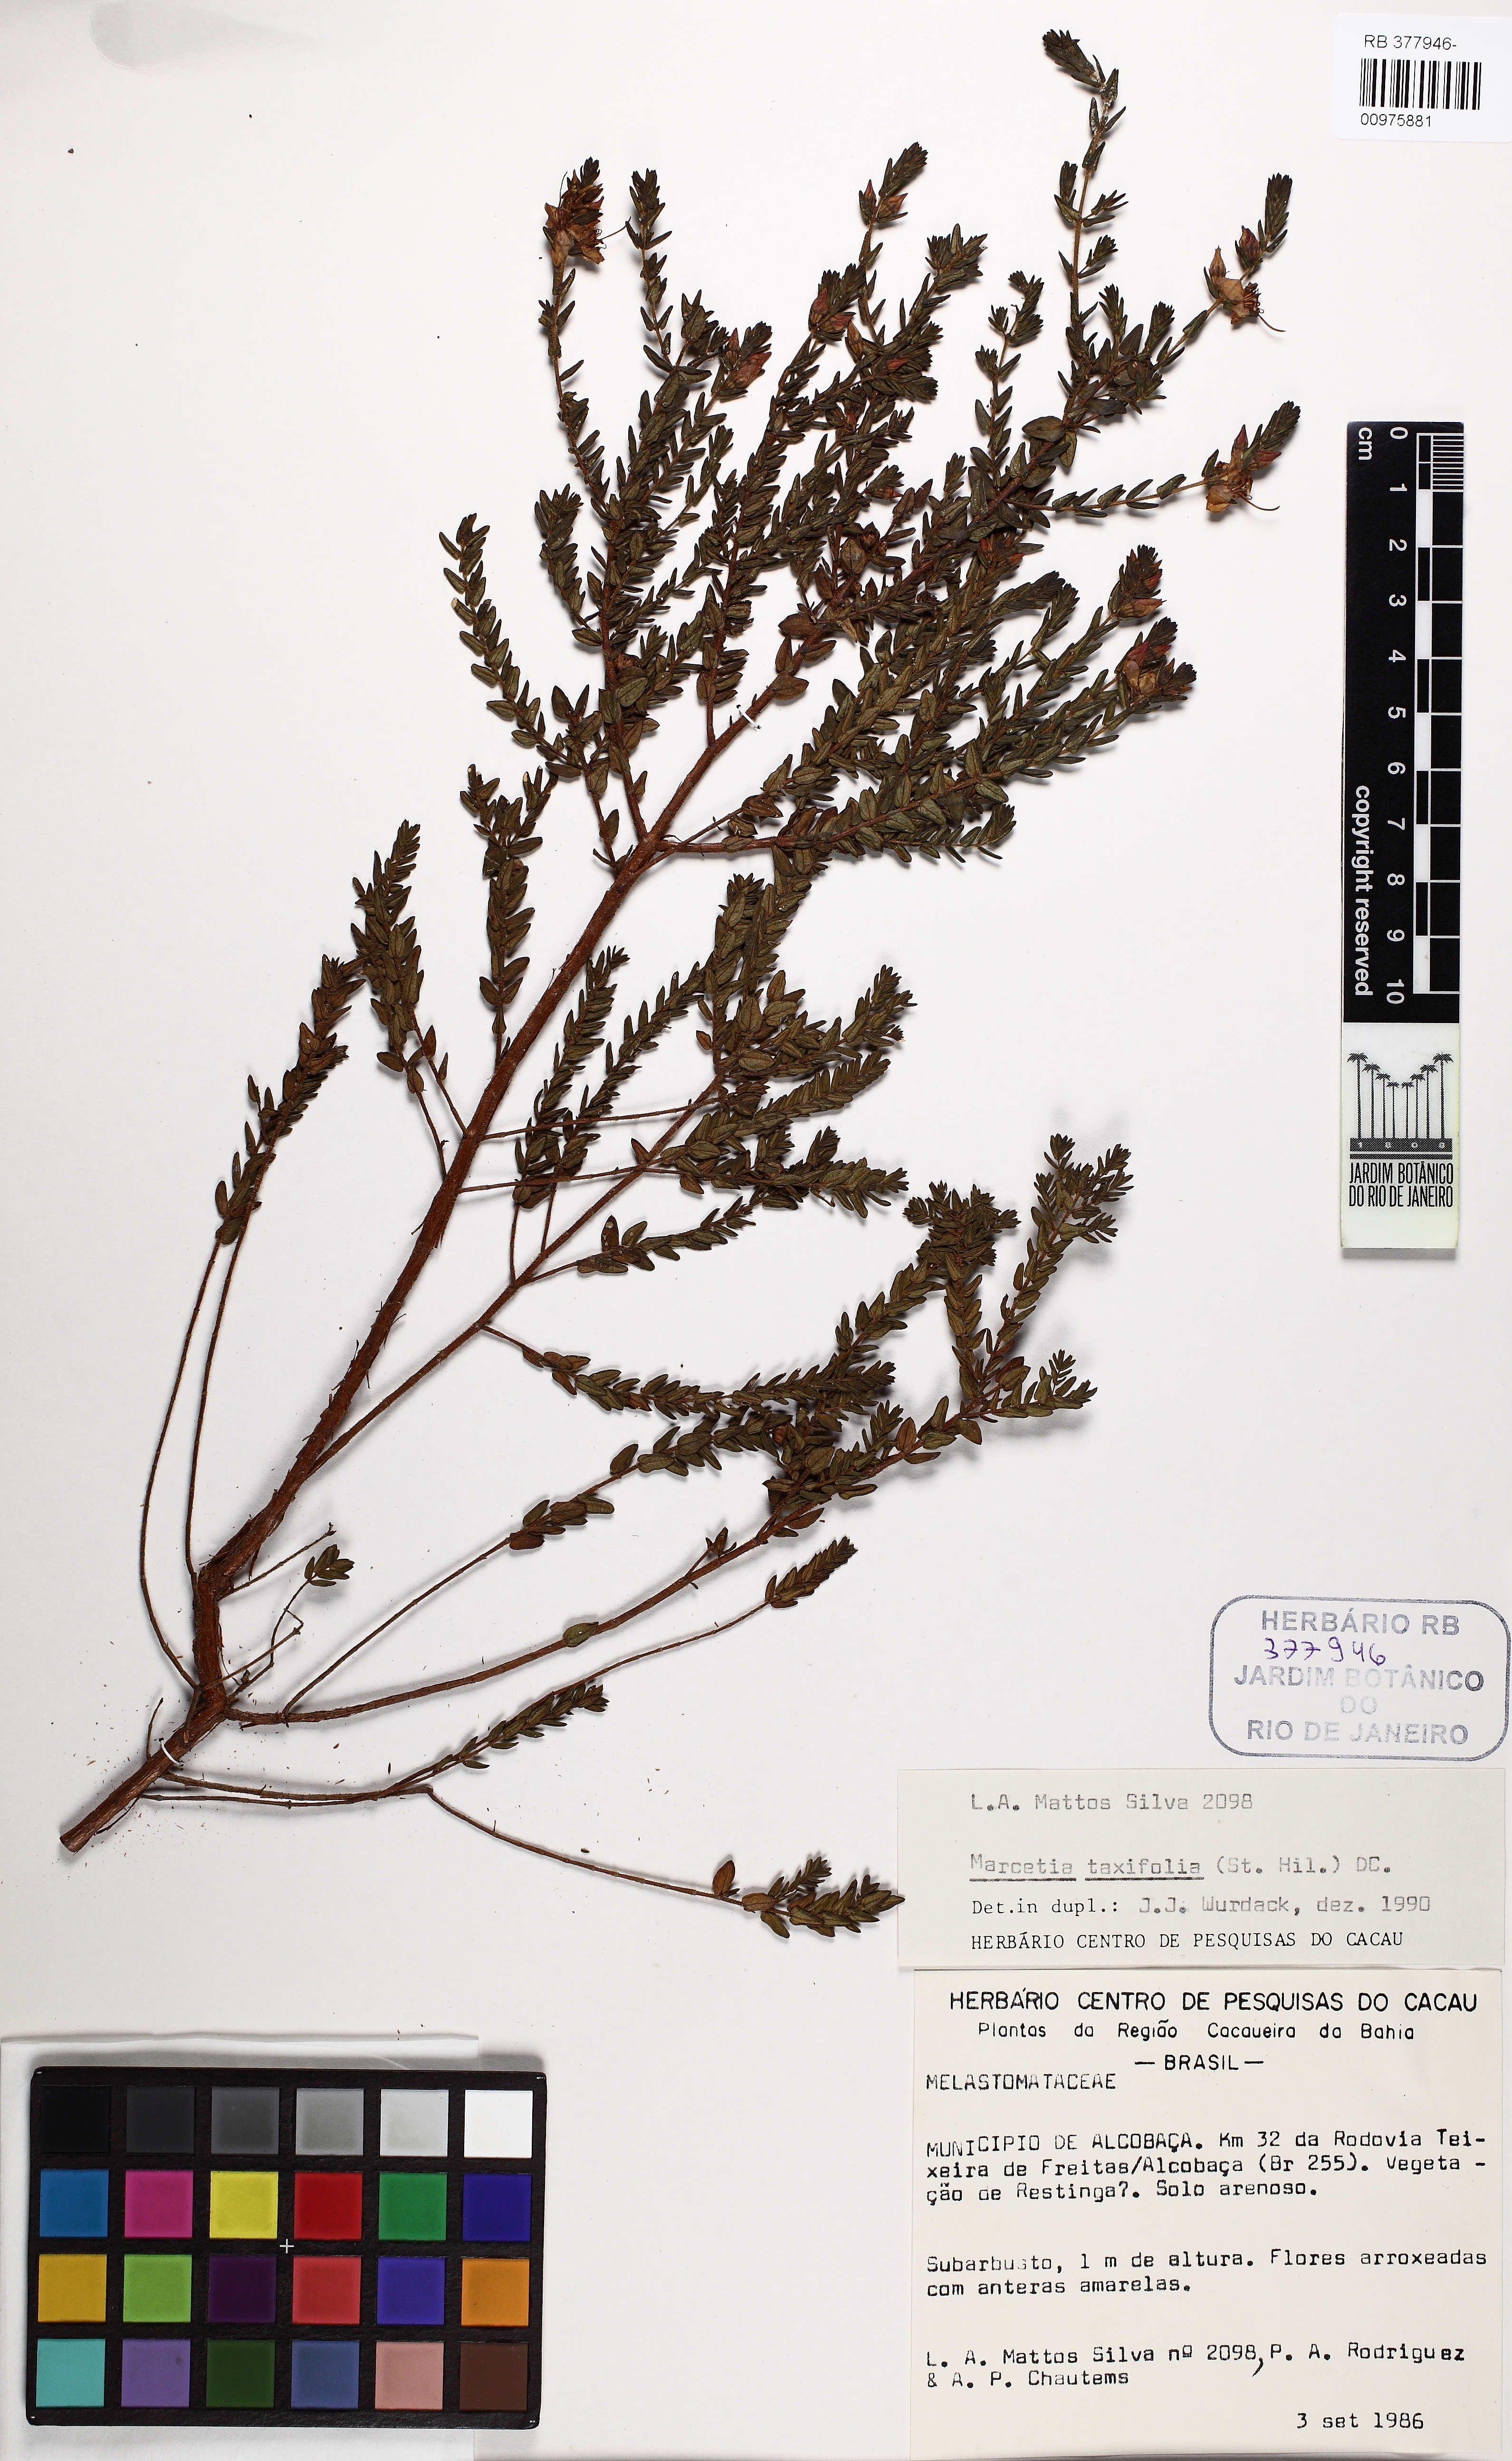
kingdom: Plantae
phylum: Tracheophyta
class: Magnoliopsida
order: Myrtales
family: Melastomataceae
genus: Marcetia
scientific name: Marcetia taxifolia
